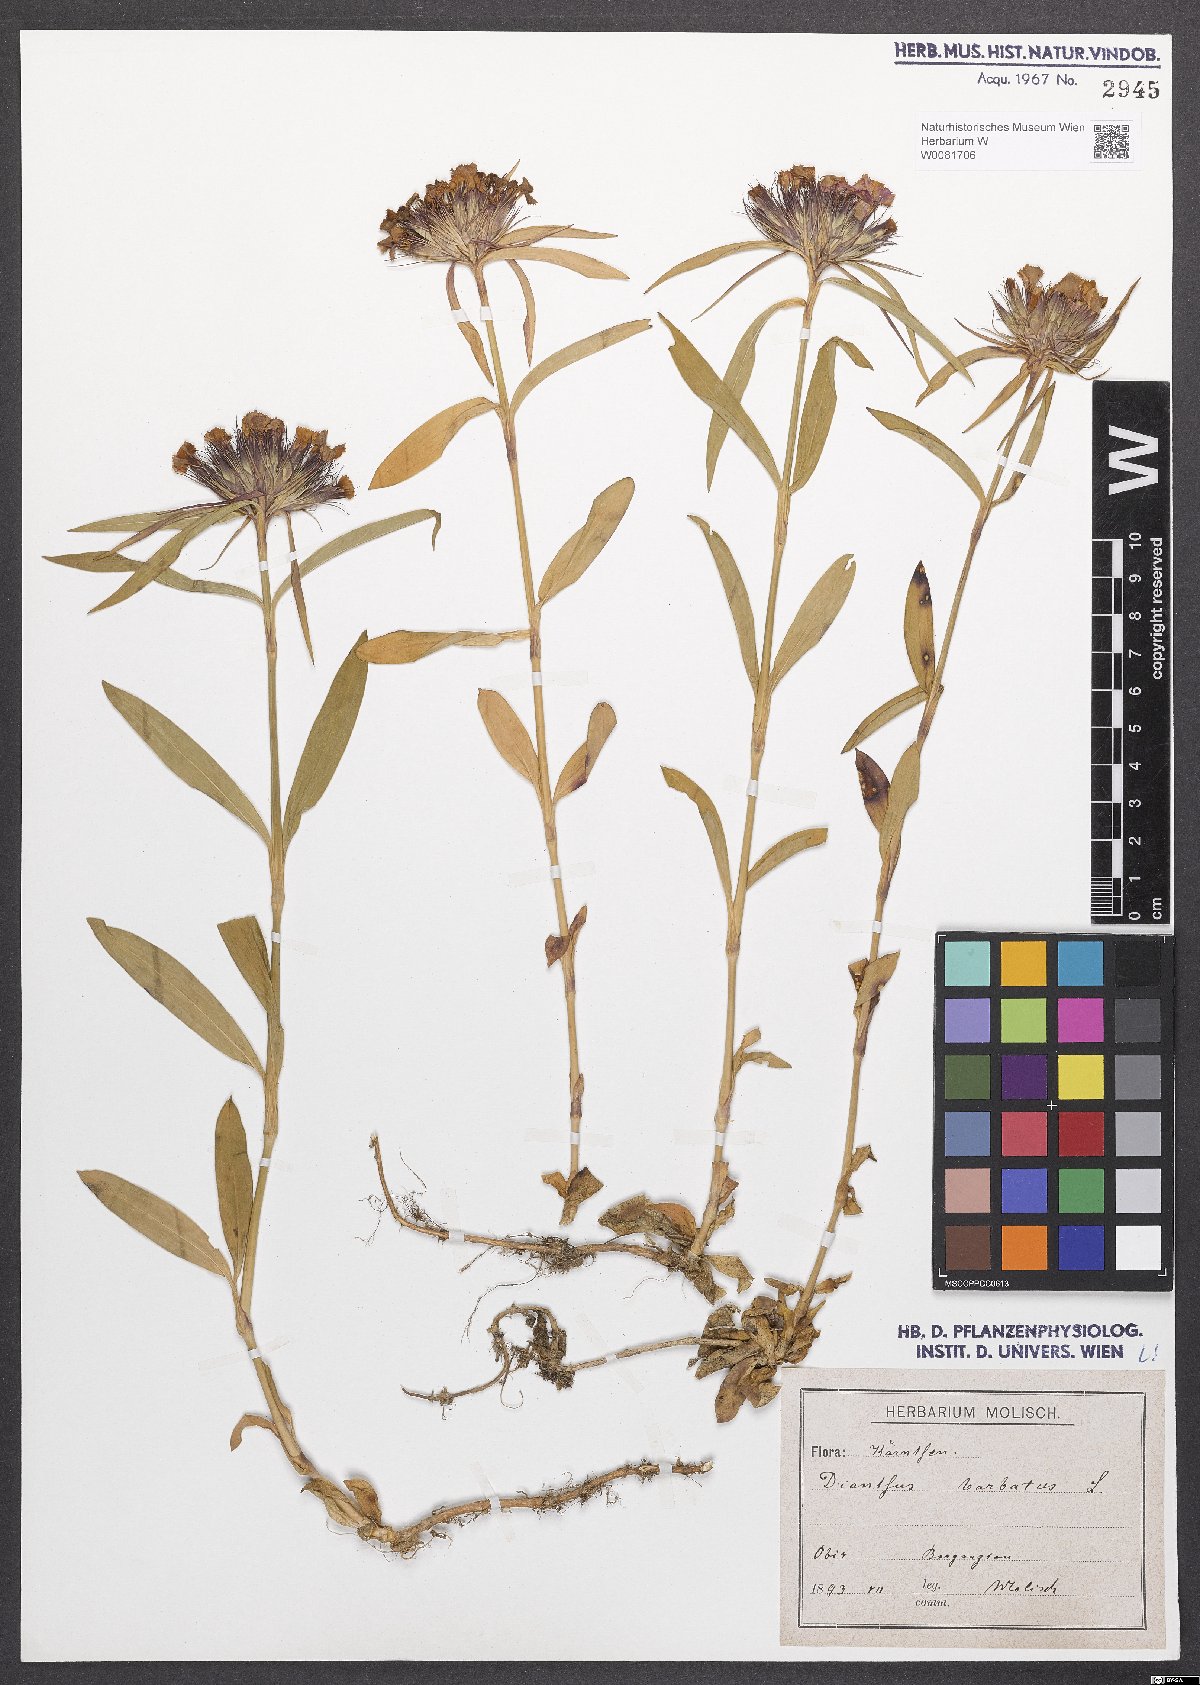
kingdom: Plantae
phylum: Tracheophyta
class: Magnoliopsida
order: Caryophyllales
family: Caryophyllaceae
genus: Dianthus
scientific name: Dianthus barbatus
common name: Sweet-william
